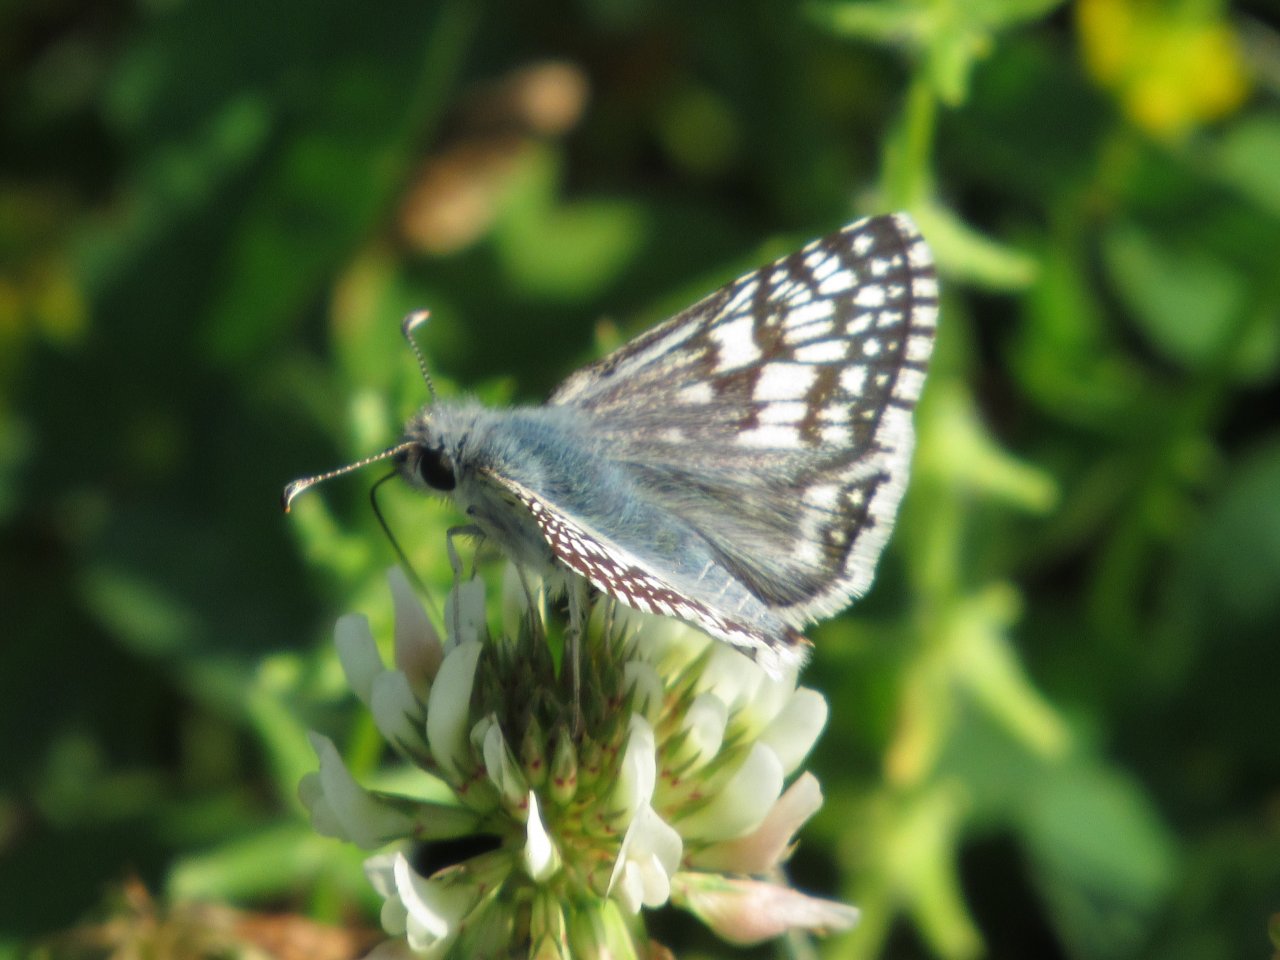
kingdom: Animalia
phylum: Arthropoda
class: Insecta
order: Lepidoptera
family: Hesperiidae
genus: Pyrgus
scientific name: Pyrgus communis
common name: Common Checkered-Skipper
